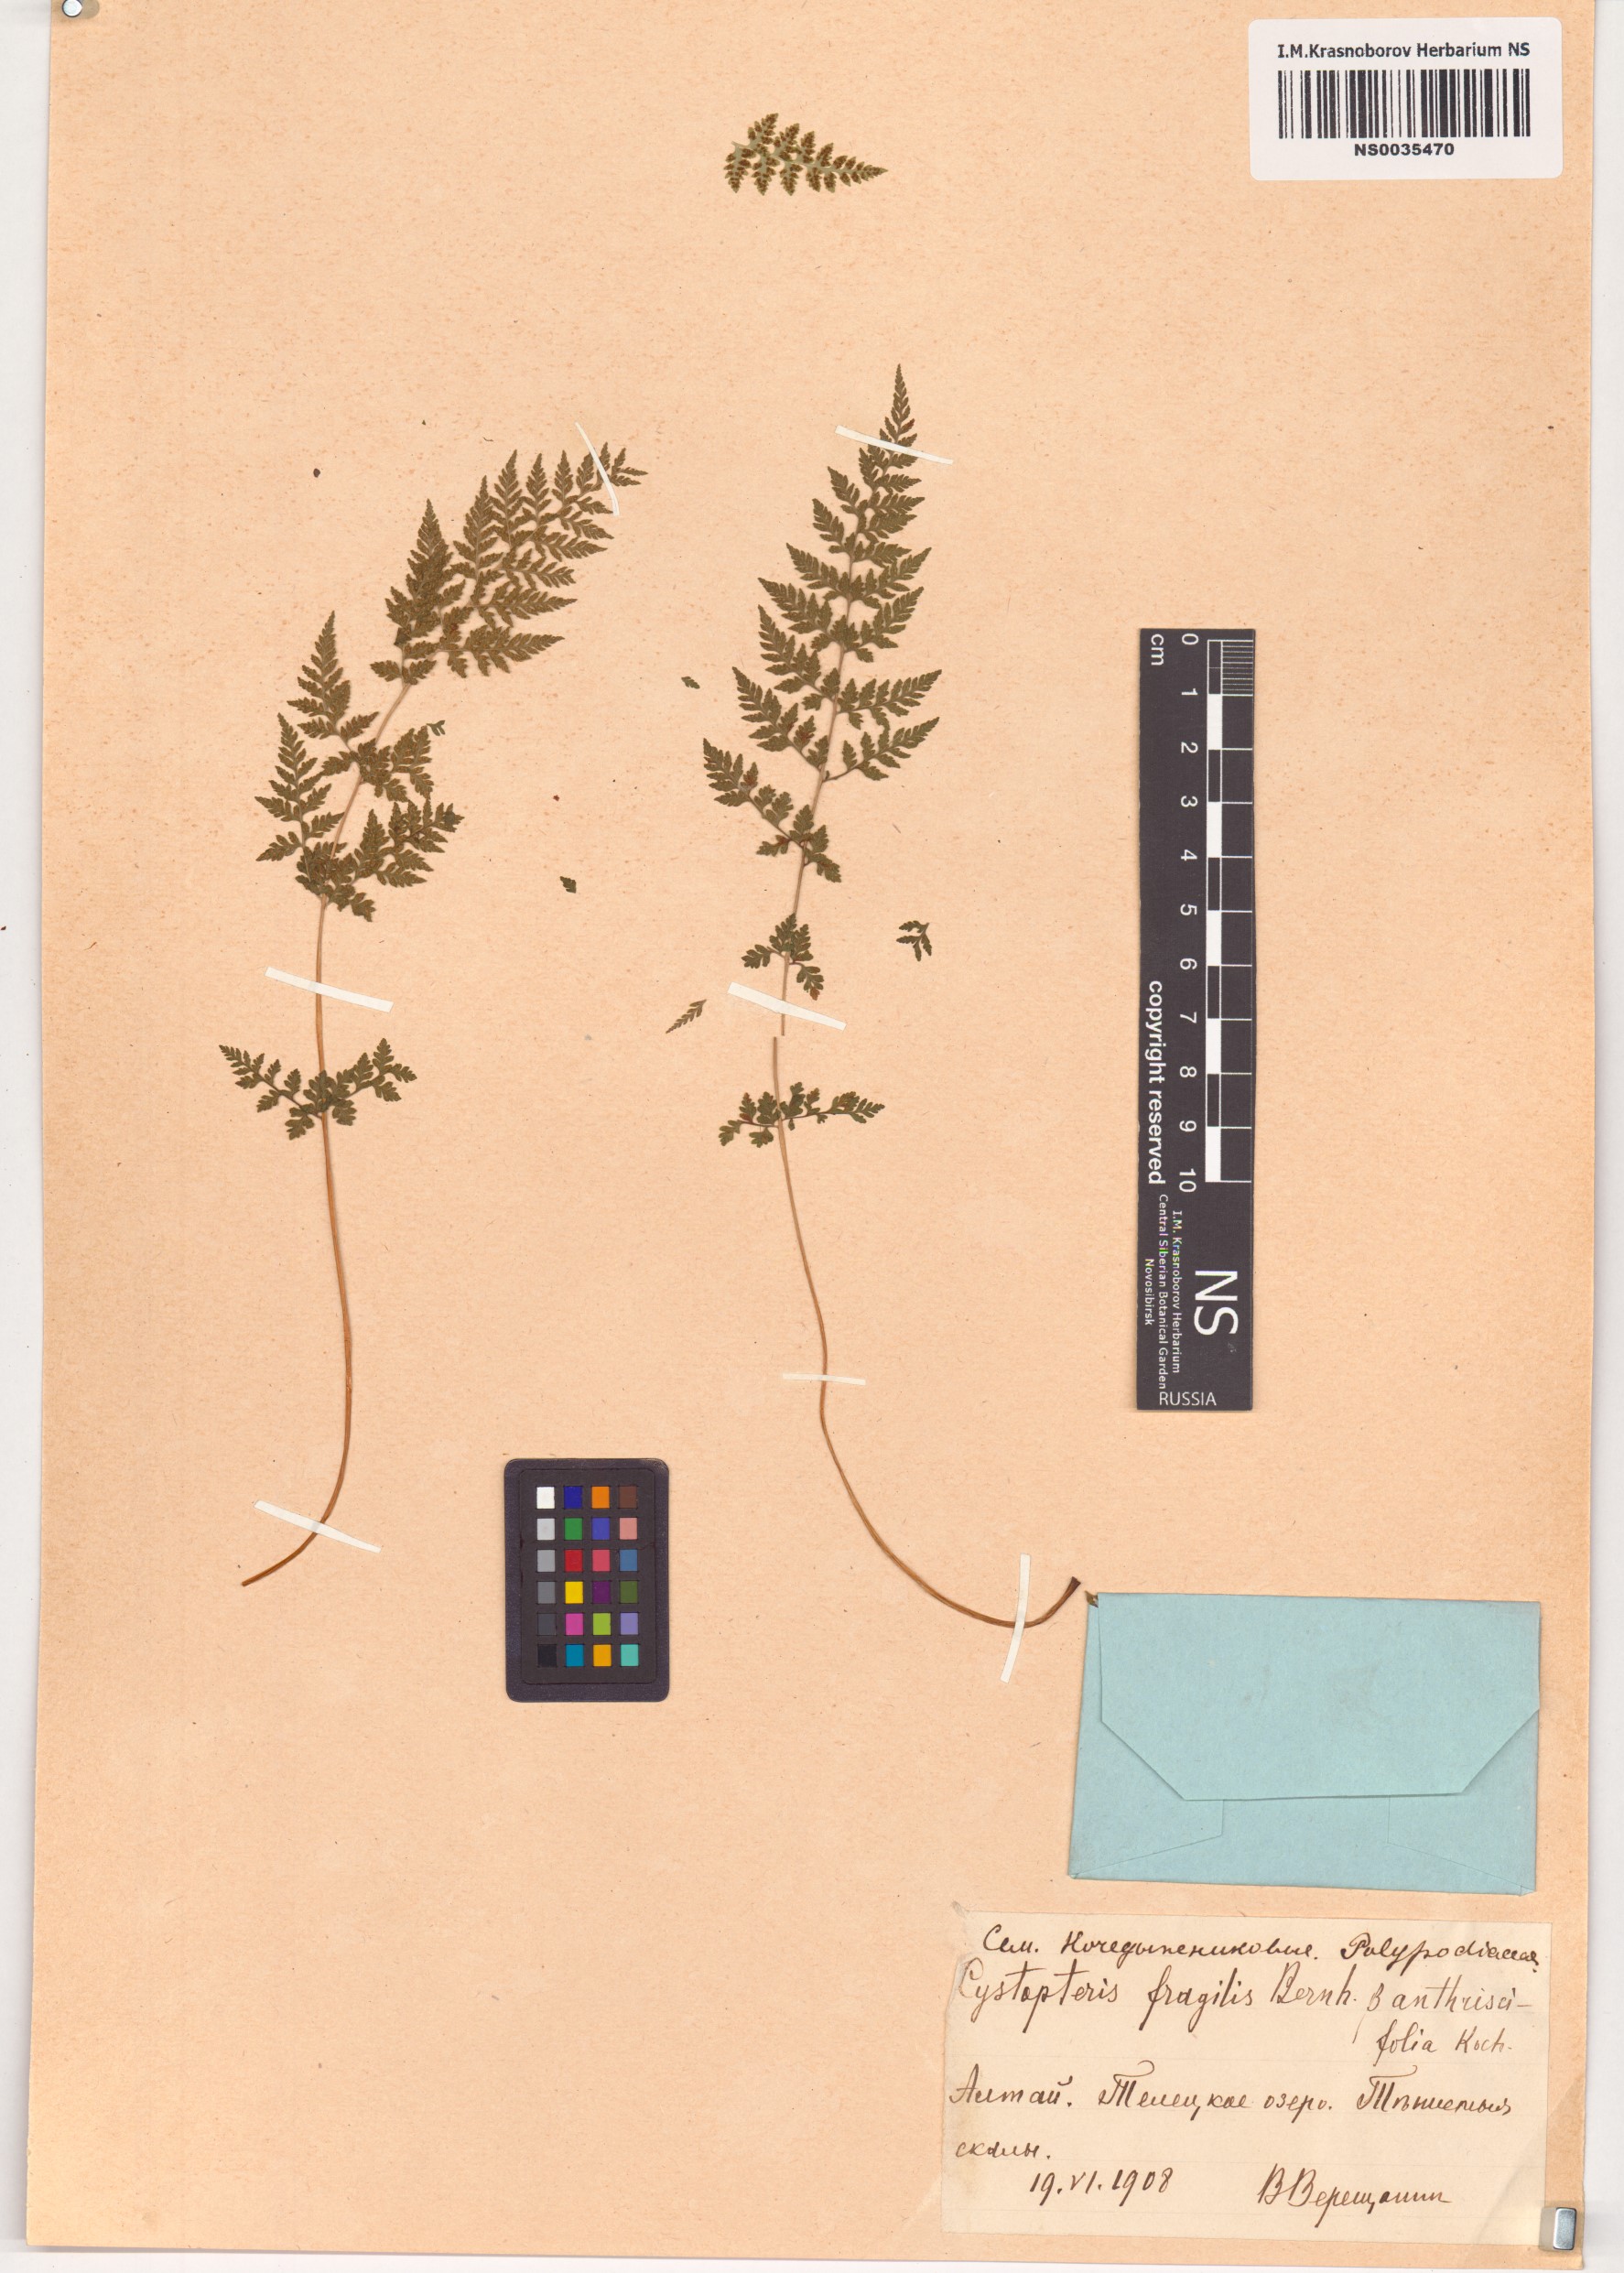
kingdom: Plantae
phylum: Tracheophyta
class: Polypodiopsida
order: Polypodiales
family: Cystopteridaceae
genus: Cystopteris
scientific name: Cystopteris fragilis
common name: Brittle bladder fern
